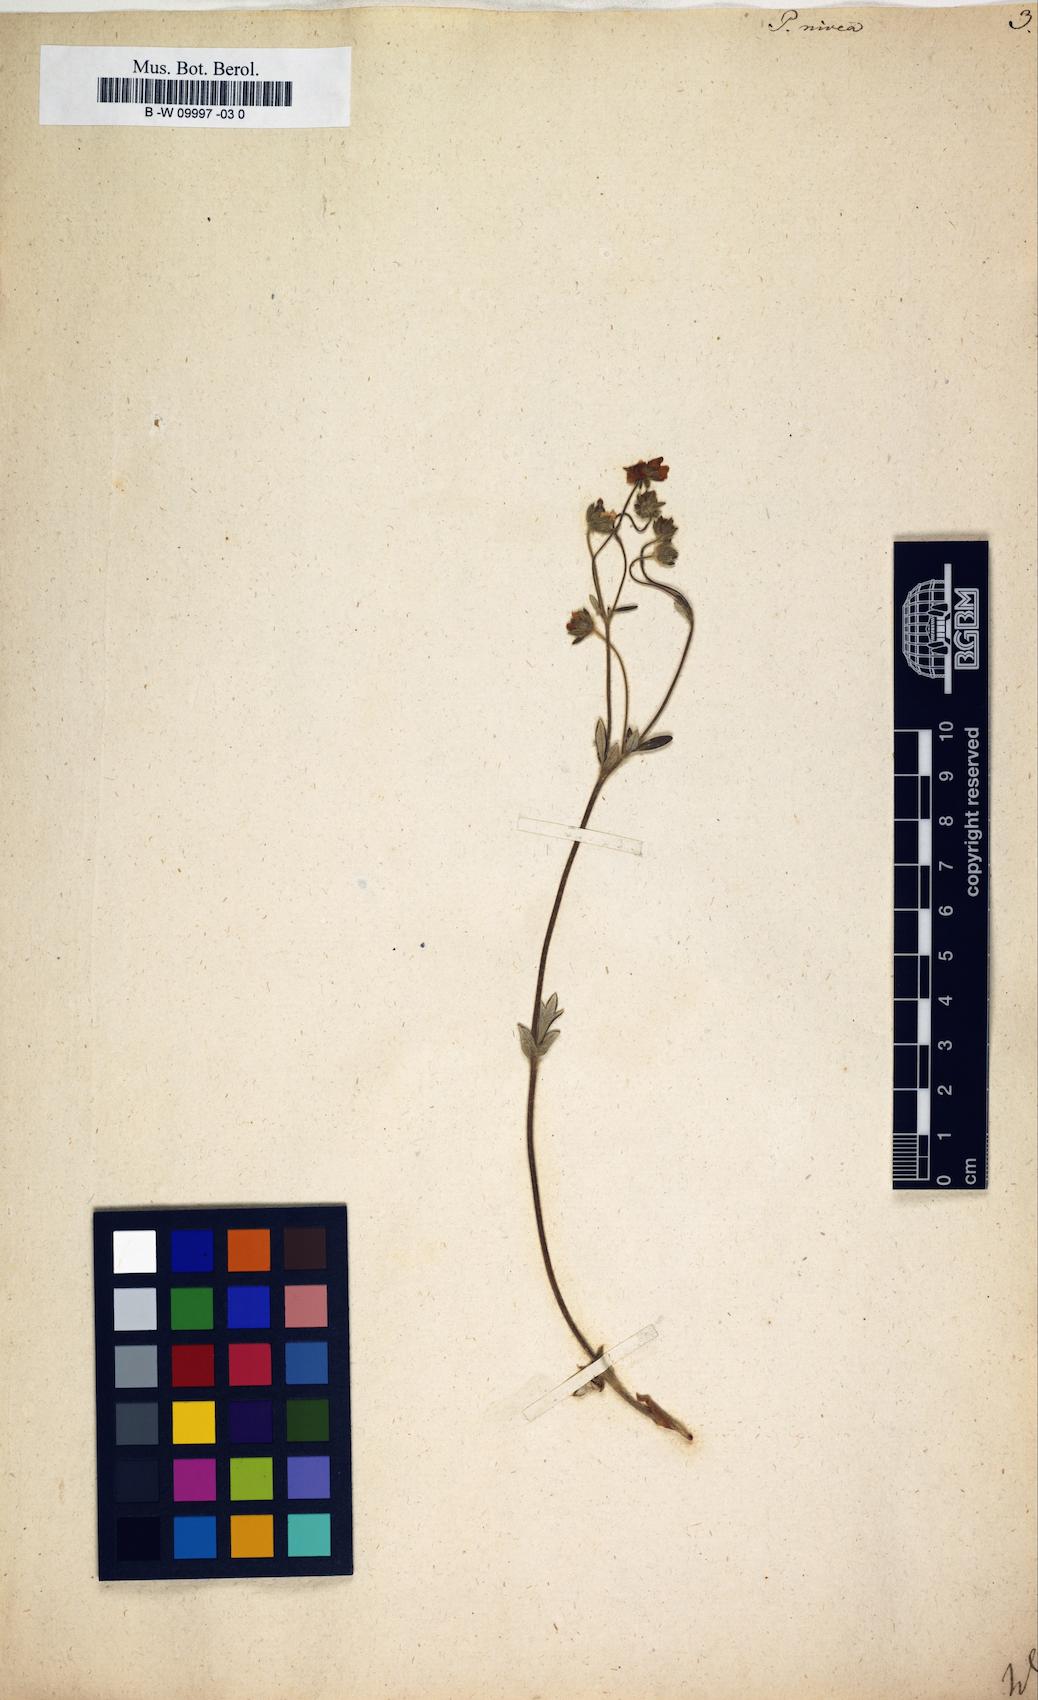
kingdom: Plantae
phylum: Tracheophyta
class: Magnoliopsida
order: Rosales
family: Rosaceae
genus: Potentilla
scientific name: Potentilla nivea
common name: Snow cinquefoil
